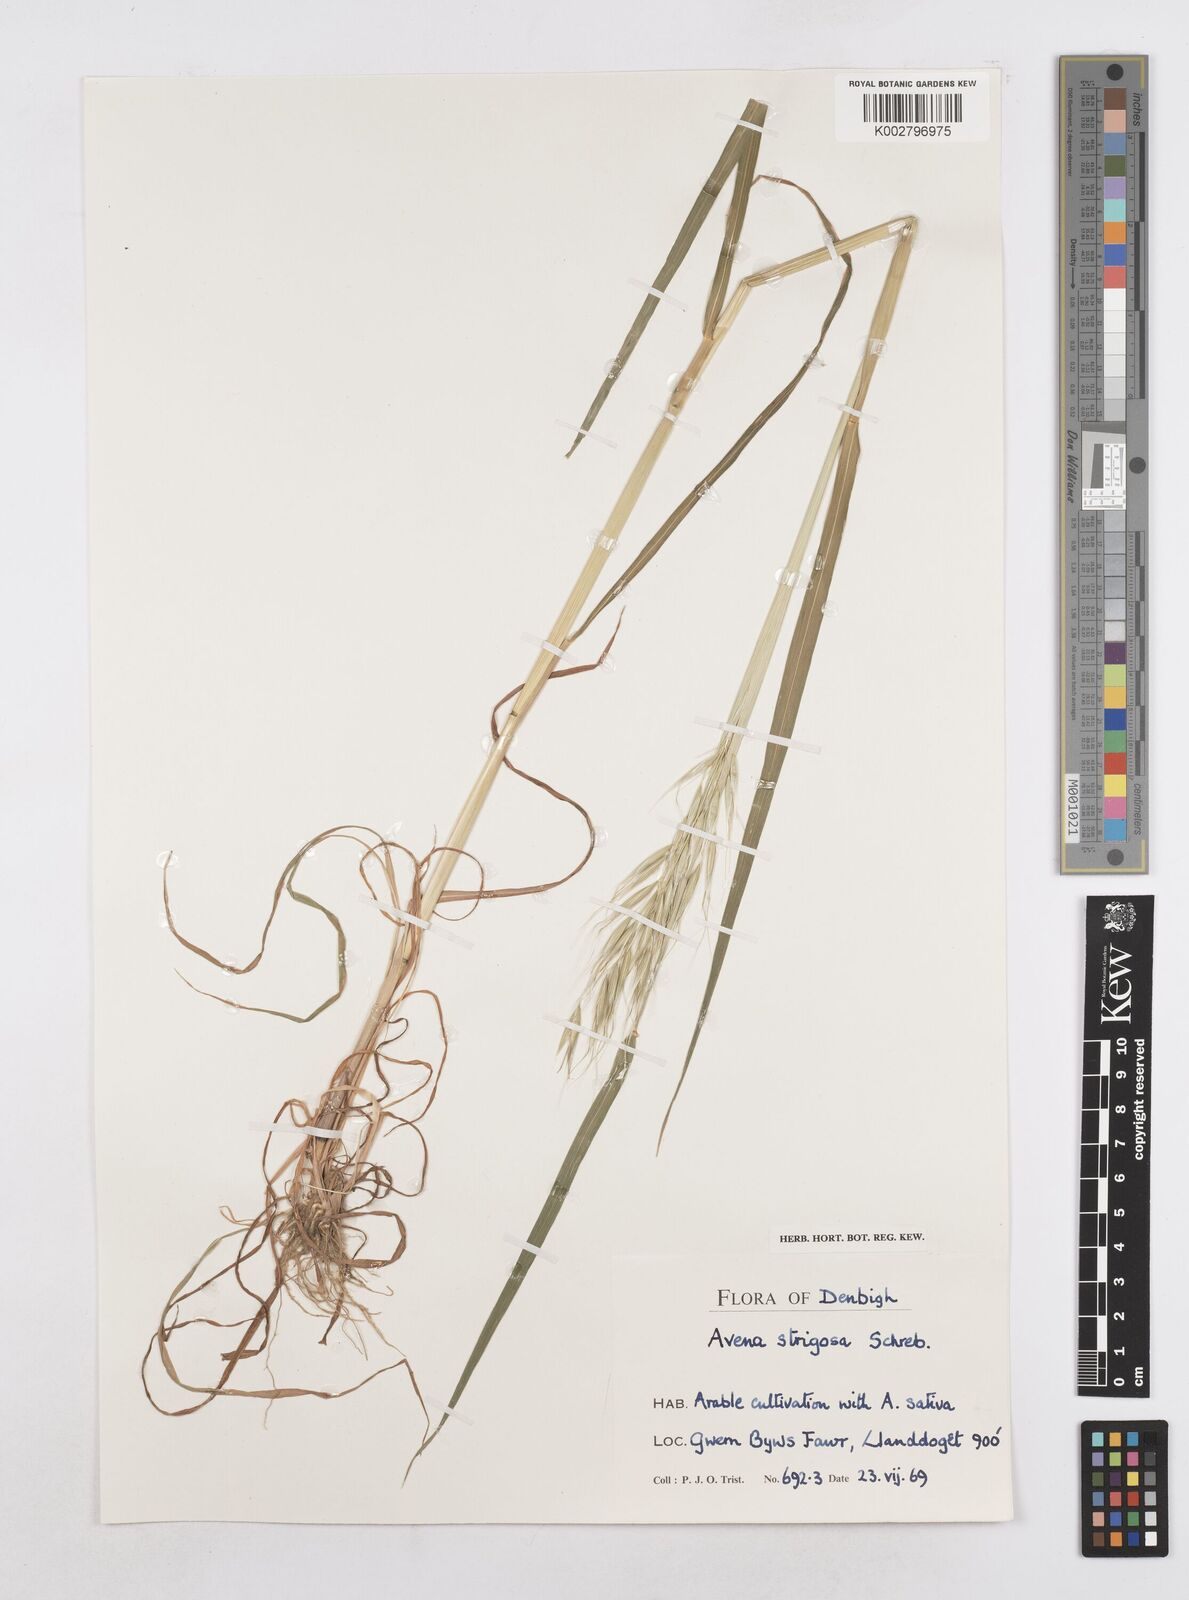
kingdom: Plantae
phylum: Tracheophyta
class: Liliopsida
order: Poales
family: Poaceae
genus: Avena
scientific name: Avena strigosa
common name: Bristle oat
